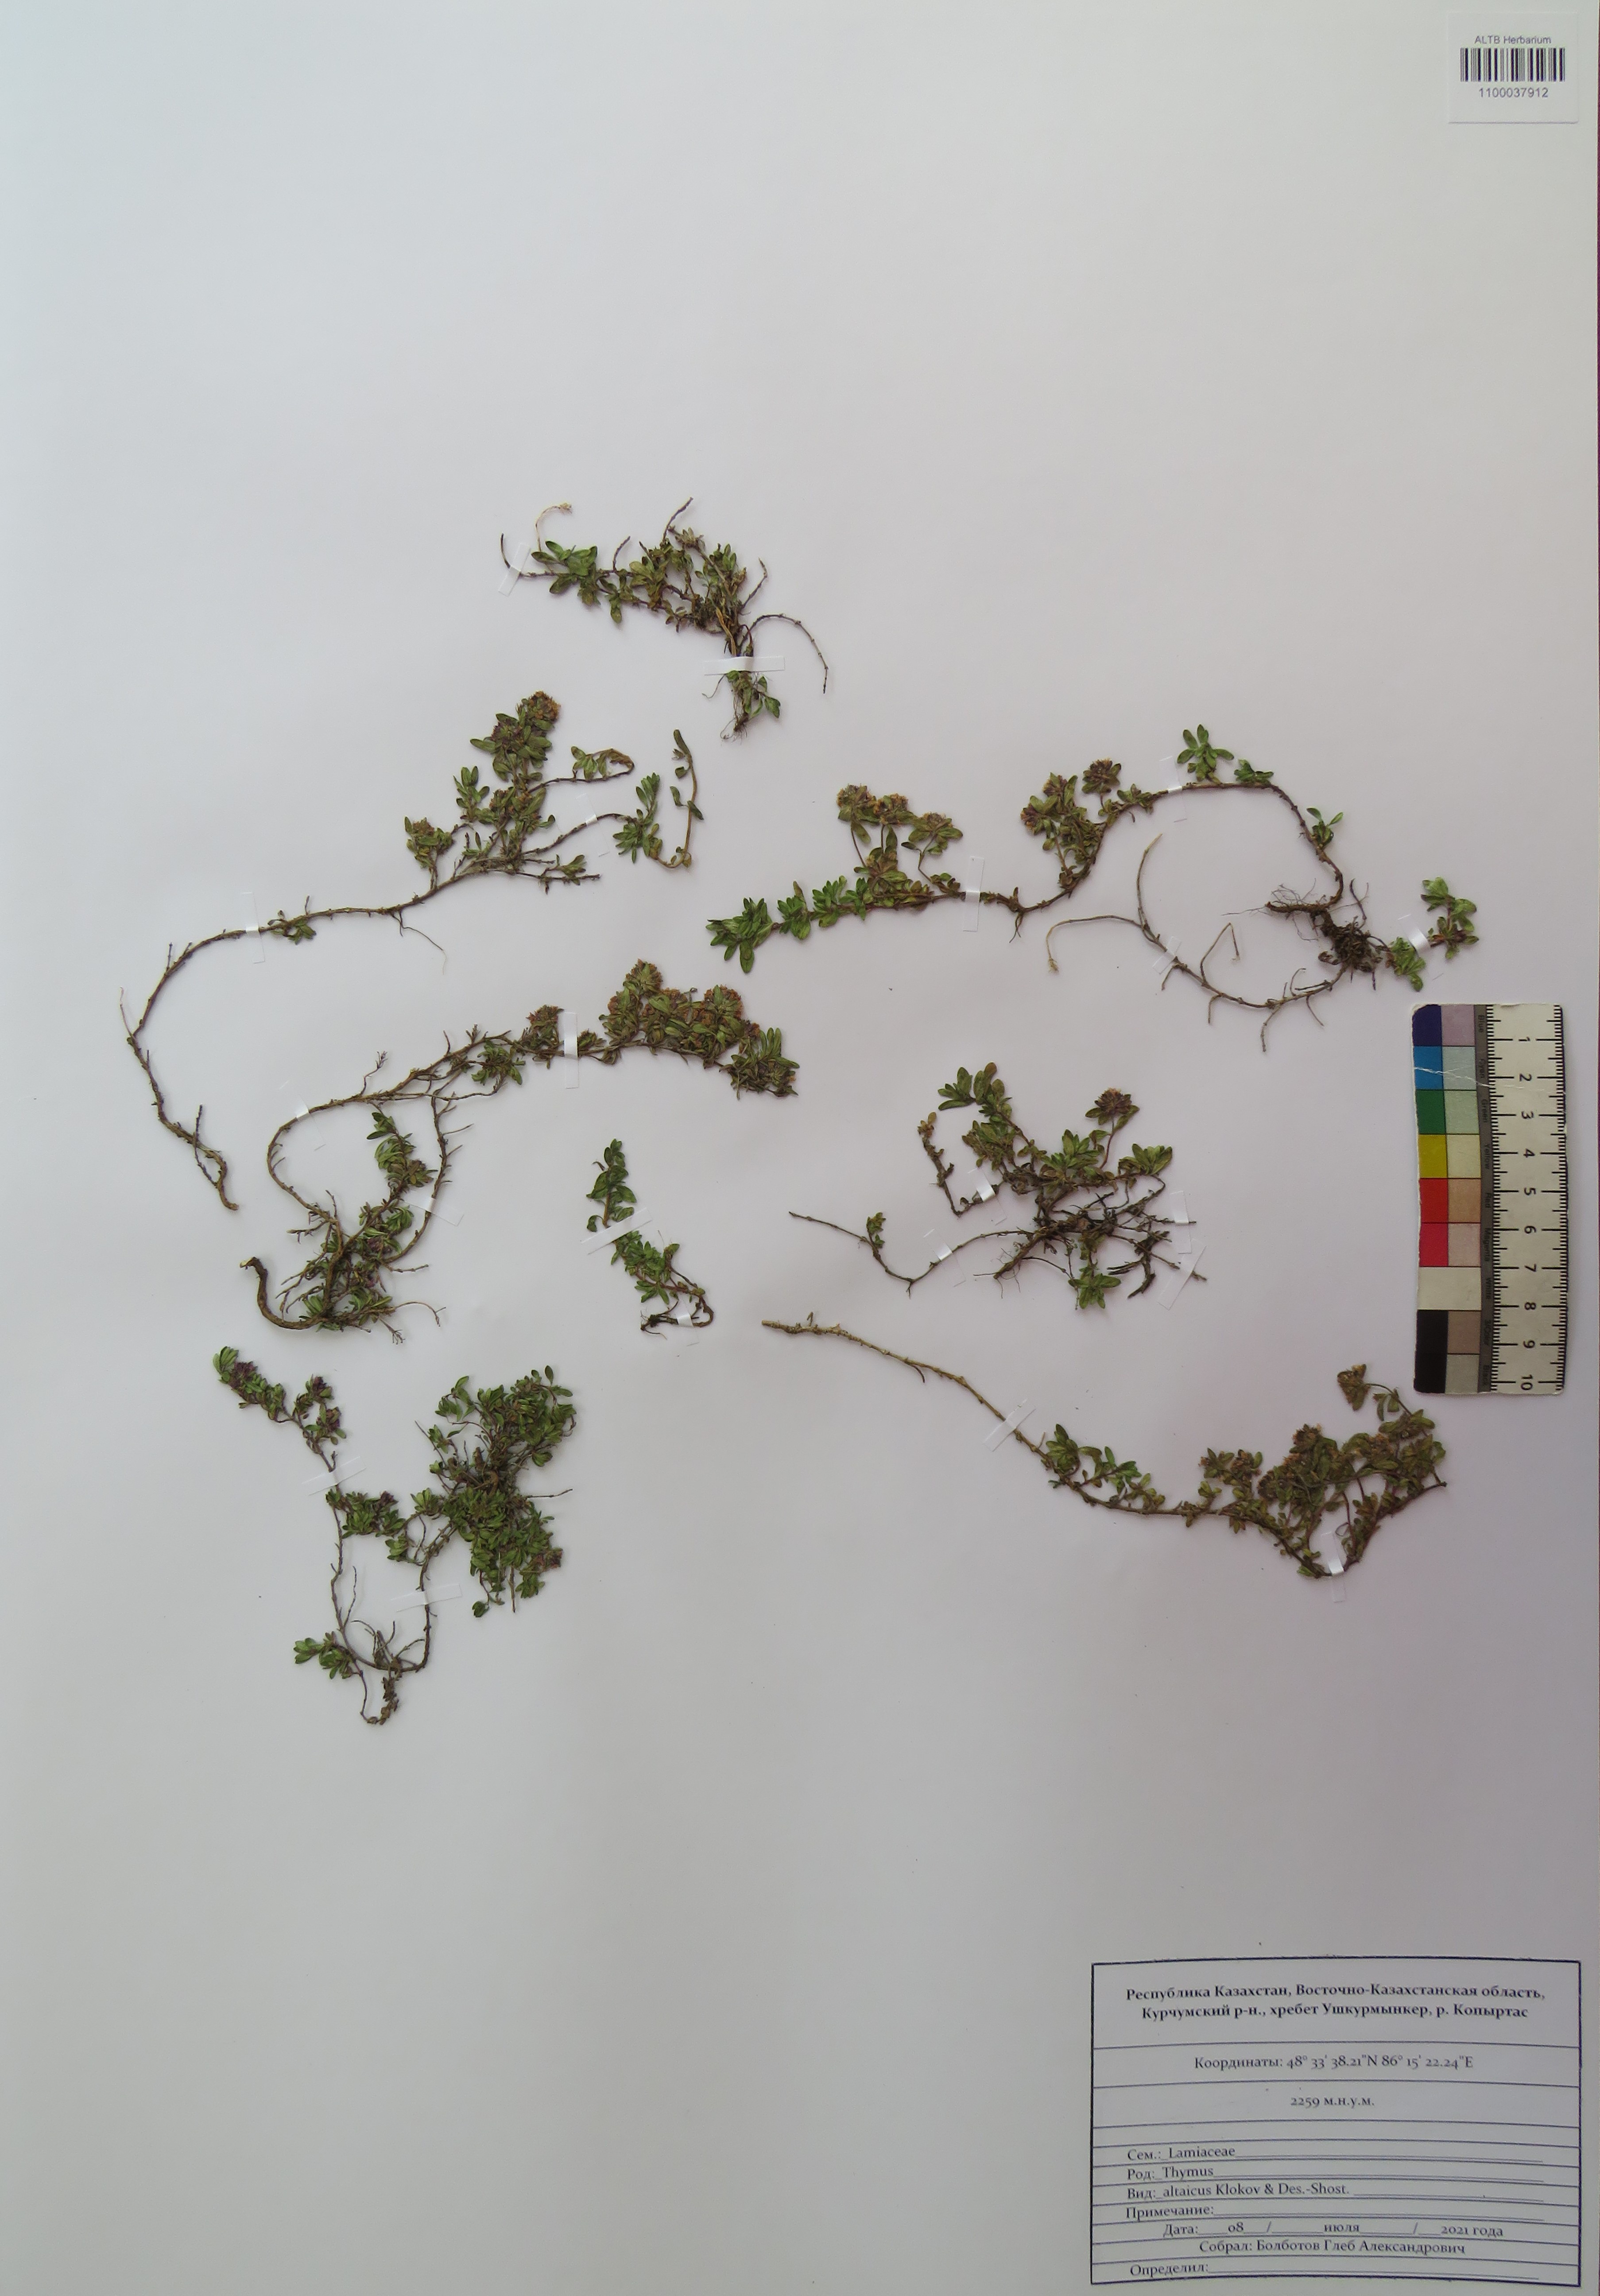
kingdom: Plantae
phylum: Tracheophyta
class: Magnoliopsida
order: Lamiales
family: Lamiaceae
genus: Thymus
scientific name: Thymus altaicus
